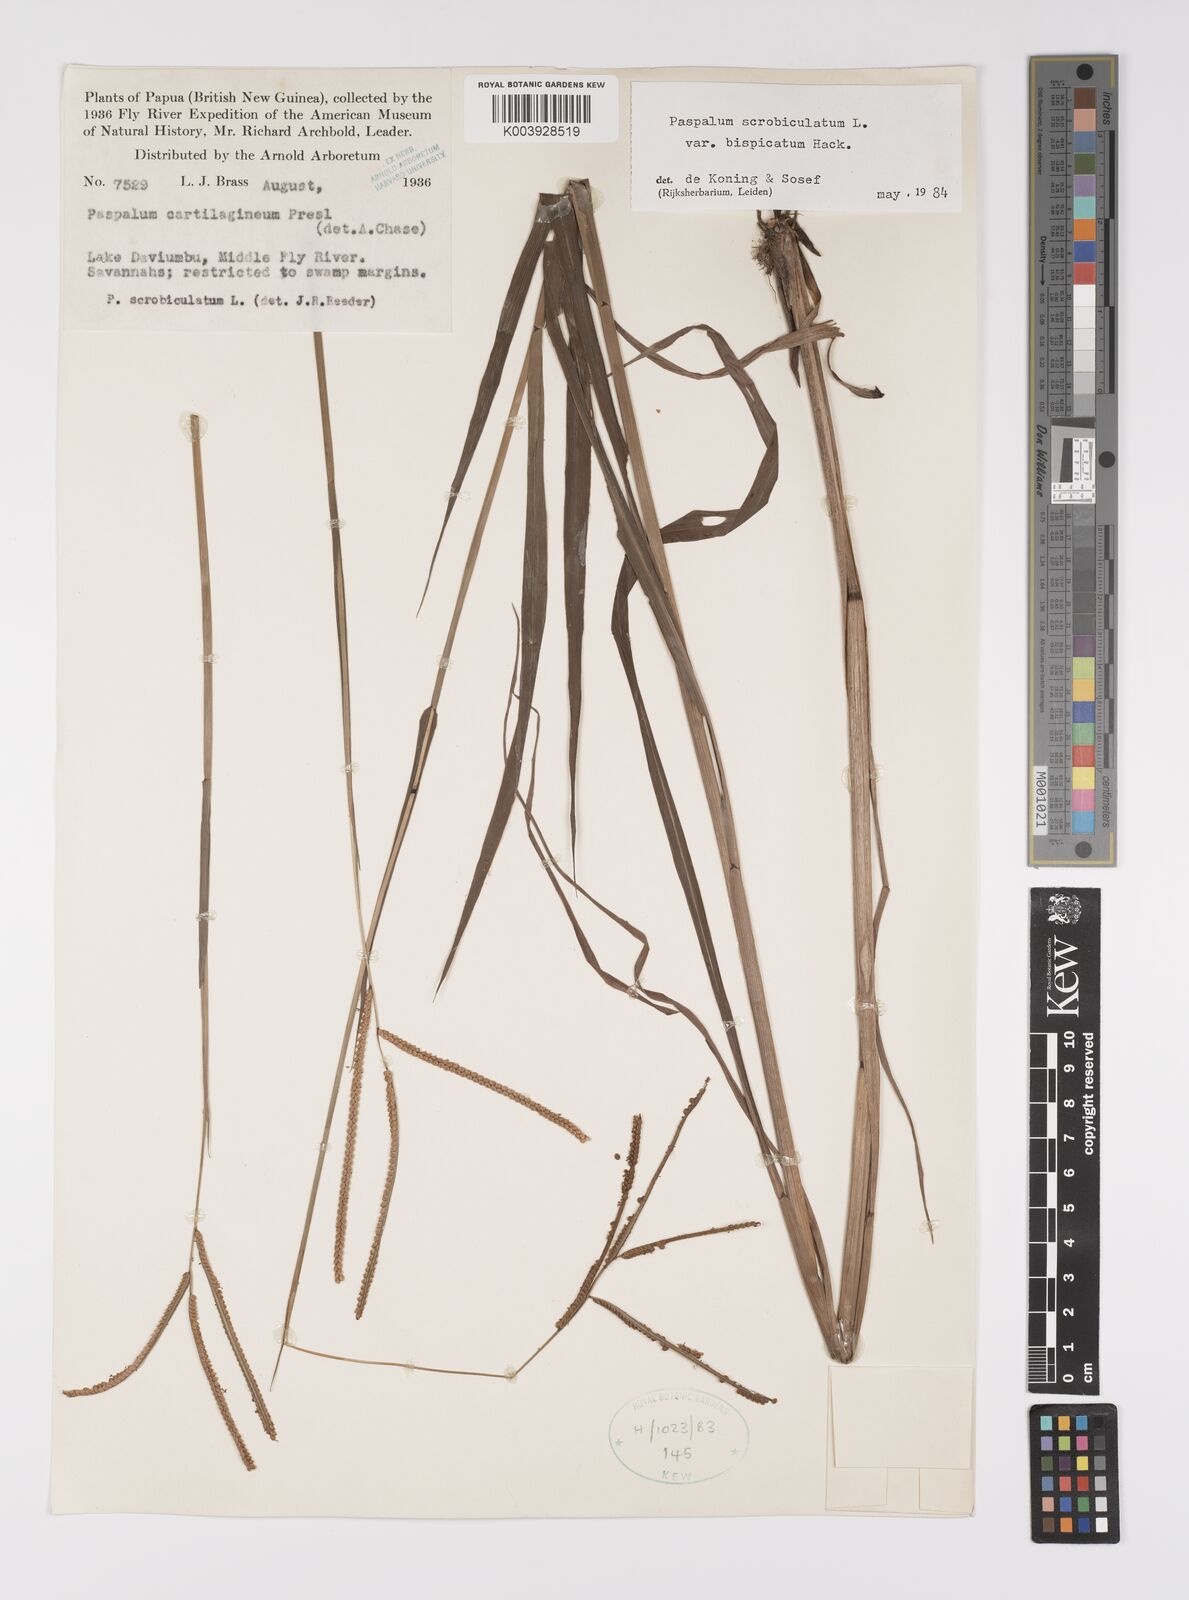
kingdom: Plantae
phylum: Tracheophyta
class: Liliopsida
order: Poales
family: Poaceae
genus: Paspalum
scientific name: Paspalum scrobiculatum
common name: Kodo millet
